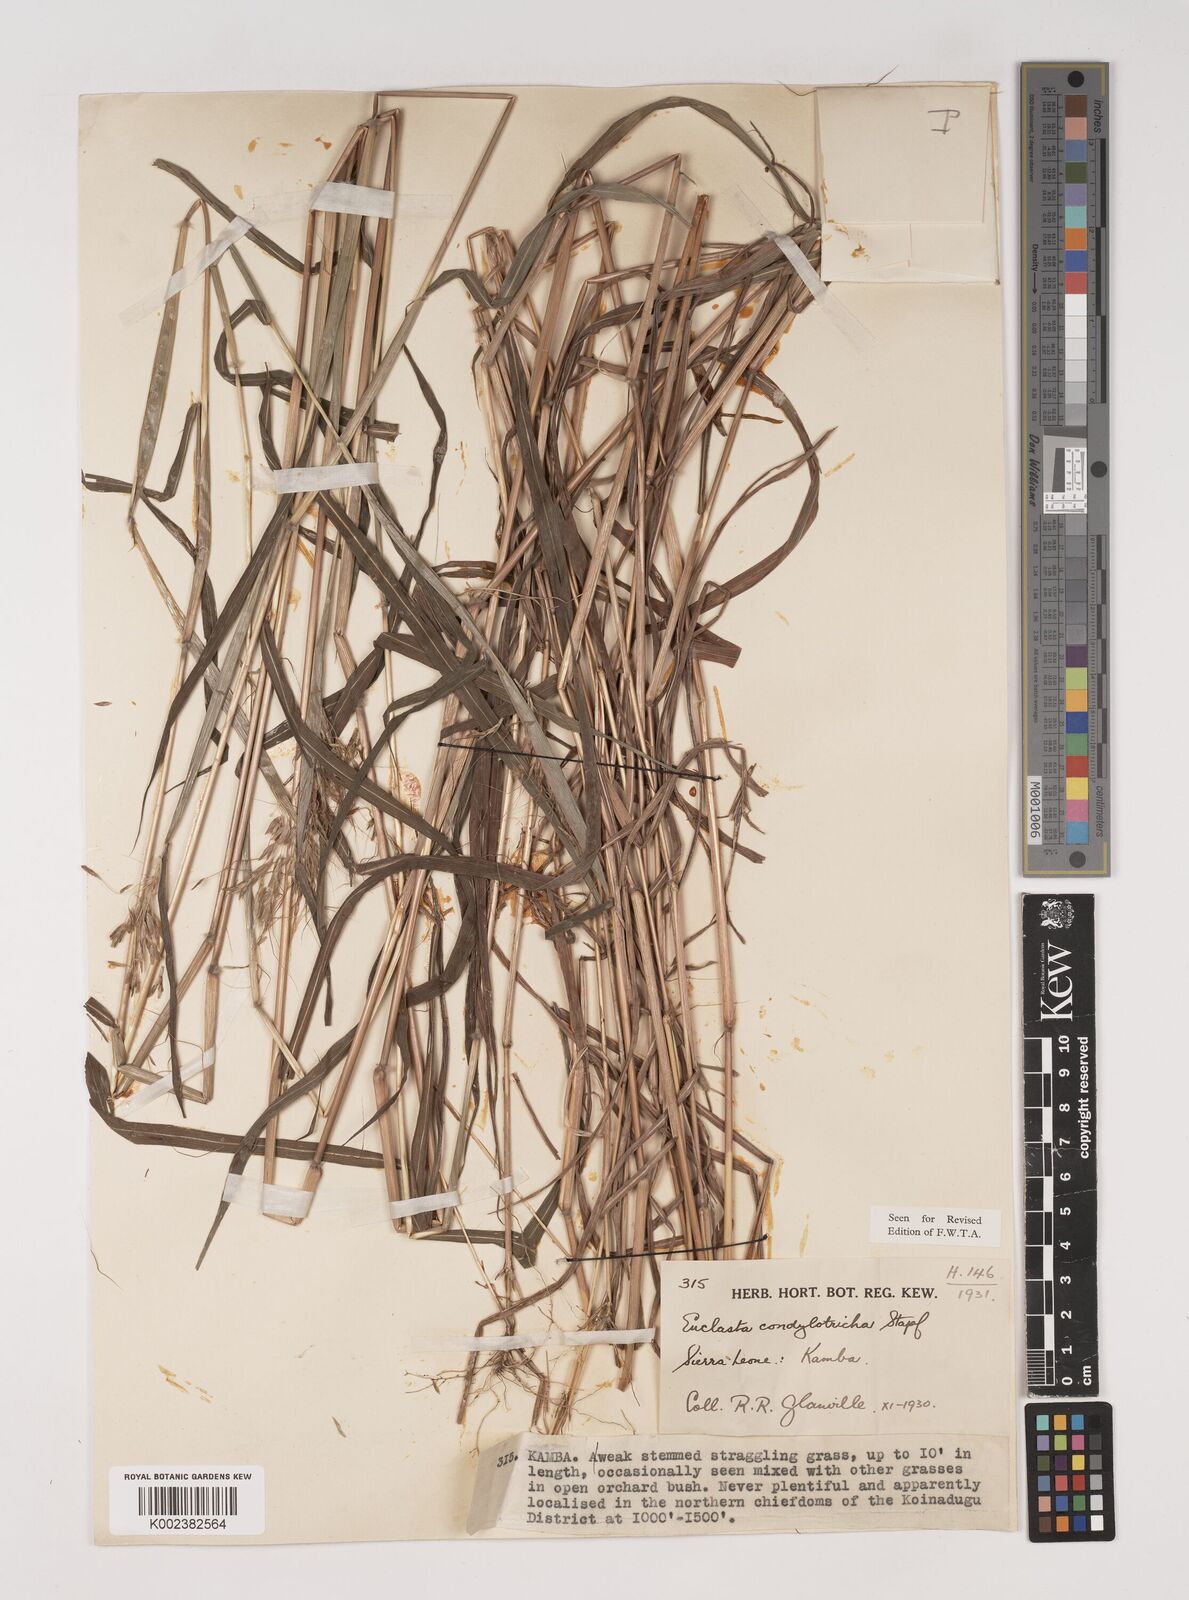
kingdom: Plantae
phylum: Tracheophyta
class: Liliopsida
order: Poales
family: Poaceae
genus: Euclasta
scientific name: Euclasta condylotricha
